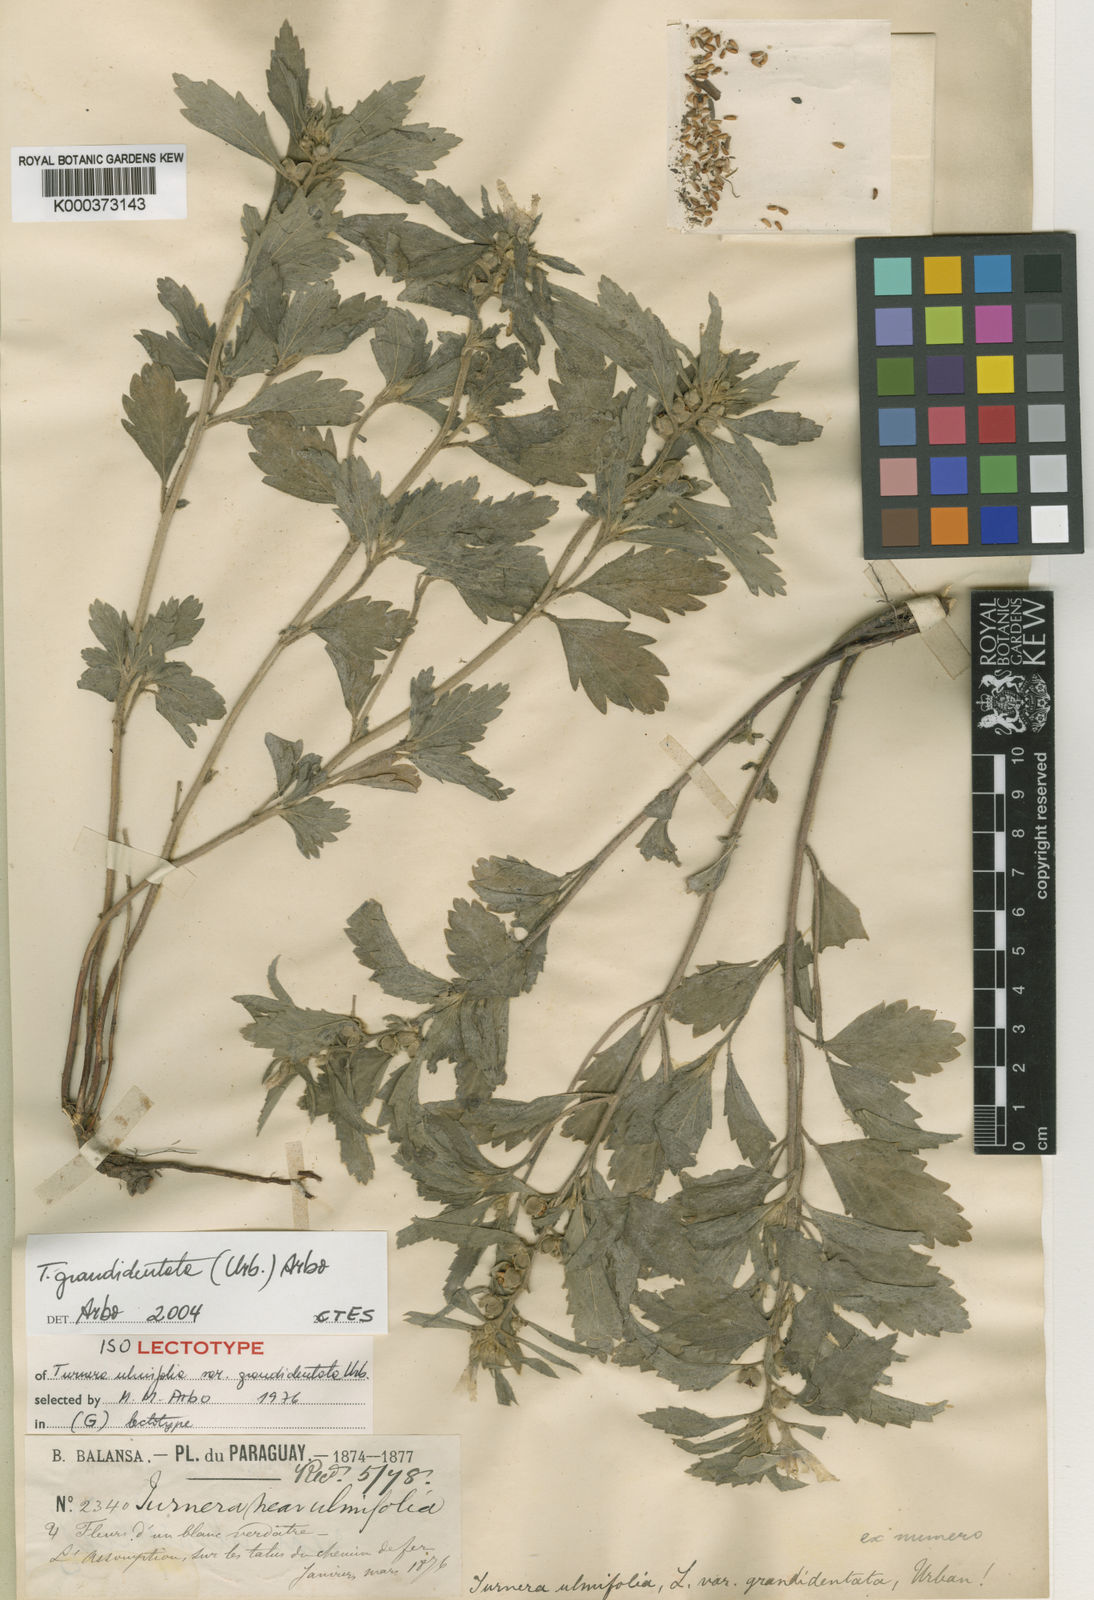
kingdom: Plantae
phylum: Tracheophyta
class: Magnoliopsida
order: Malpighiales
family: Turneraceae
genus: Turnera
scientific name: Turnera grandidentata
